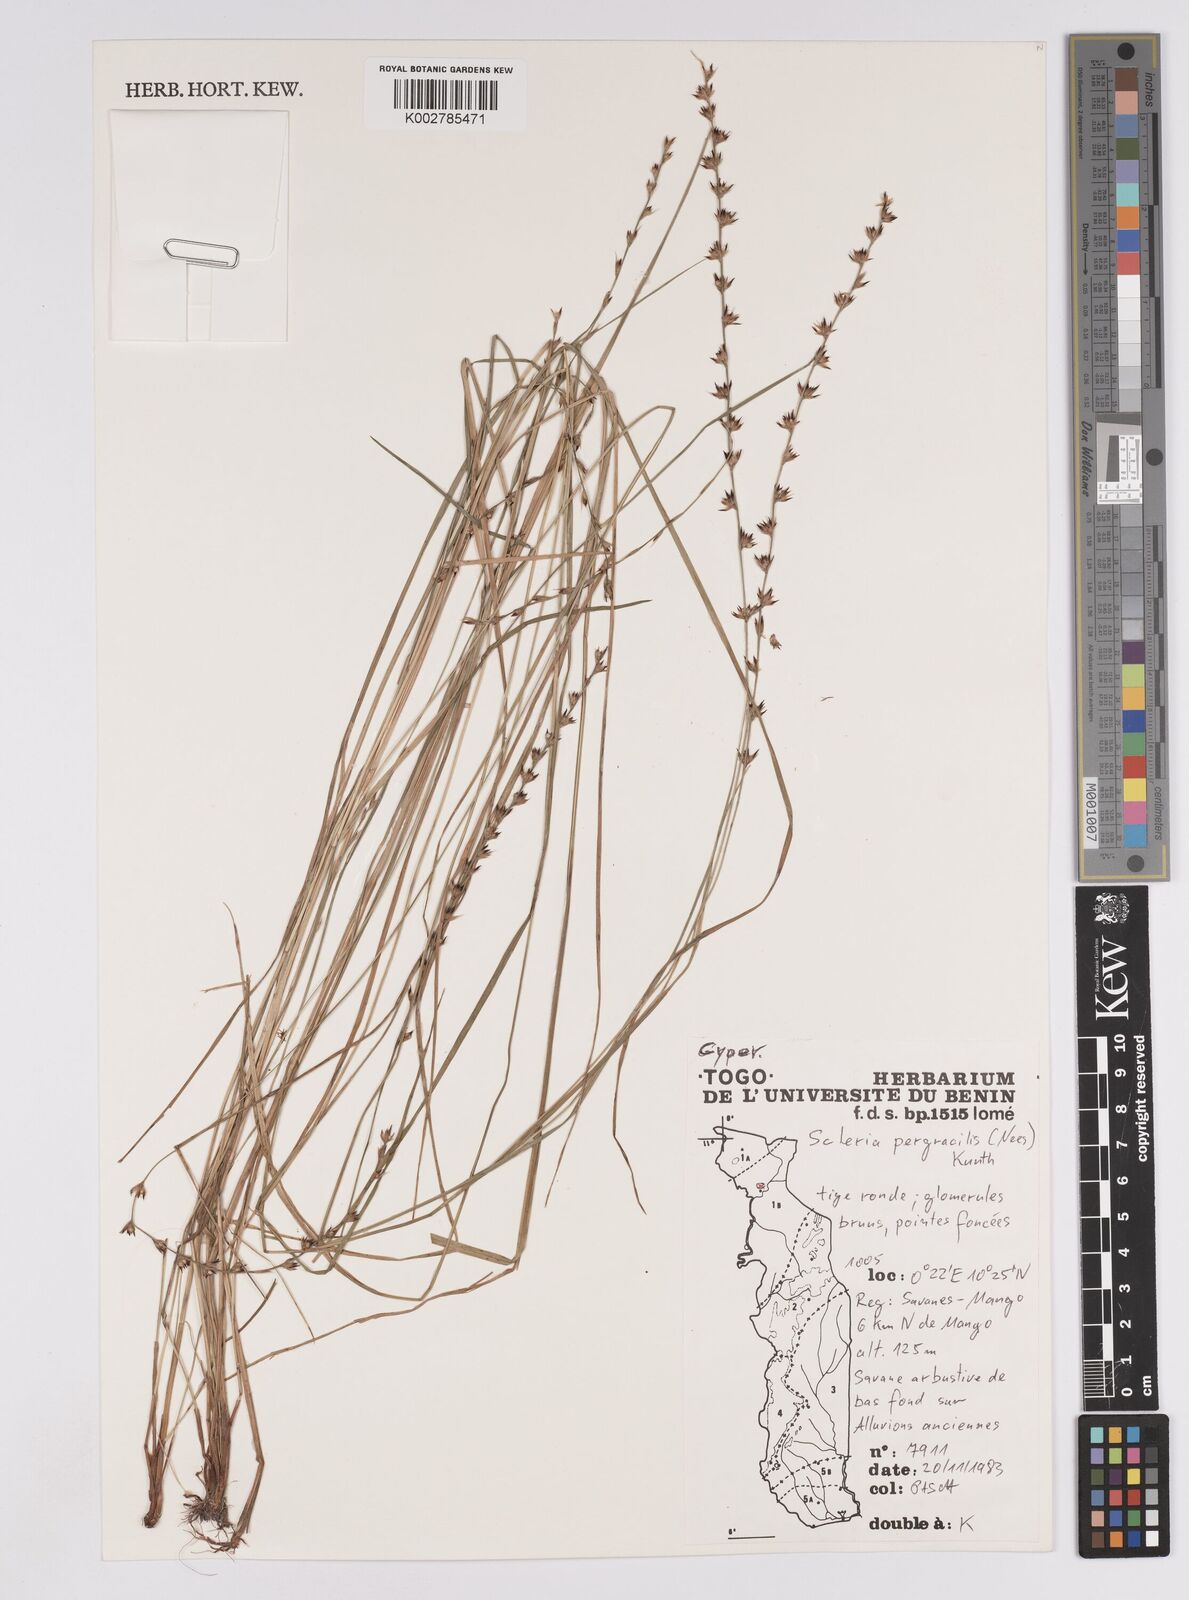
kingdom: Plantae
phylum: Tracheophyta
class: Liliopsida
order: Poales
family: Cyperaceae
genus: Scleria
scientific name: Scleria pergracilis
